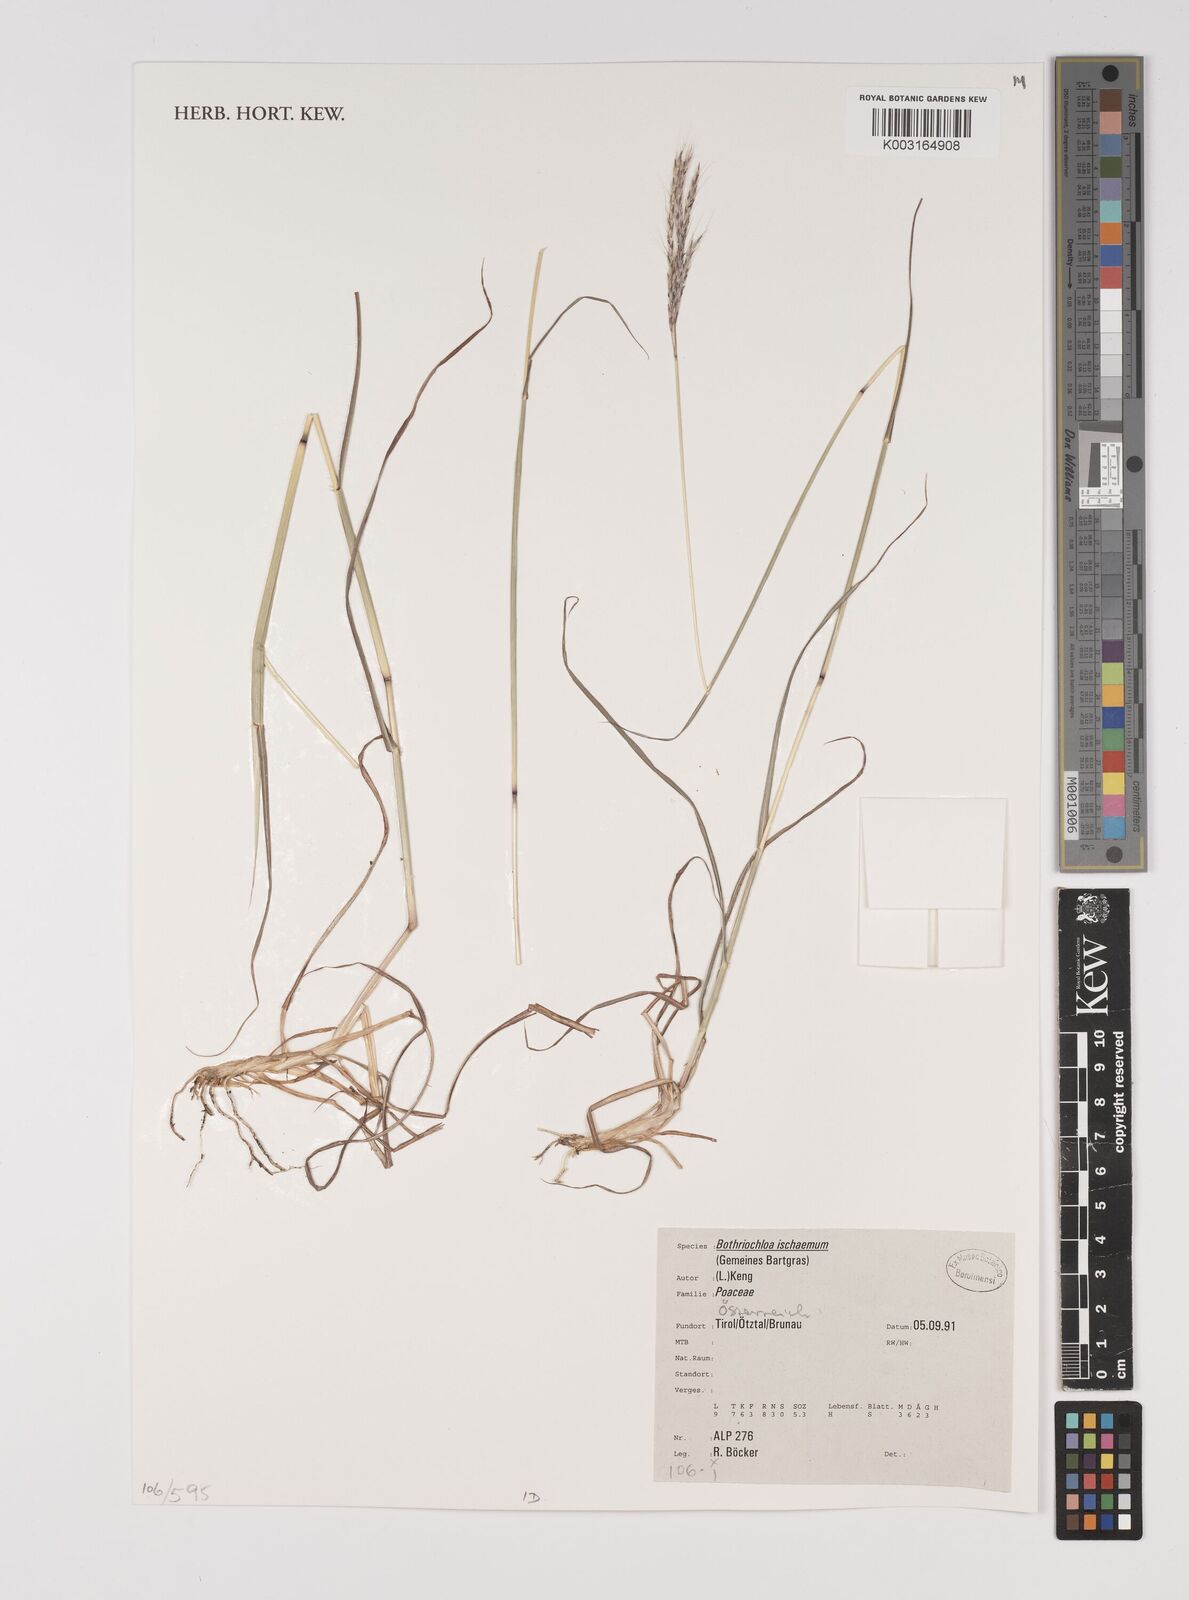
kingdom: Plantae
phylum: Tracheophyta
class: Liliopsida
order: Poales
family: Poaceae
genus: Bothriochloa
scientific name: Bothriochloa ischaemum
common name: Yellow bluestem
